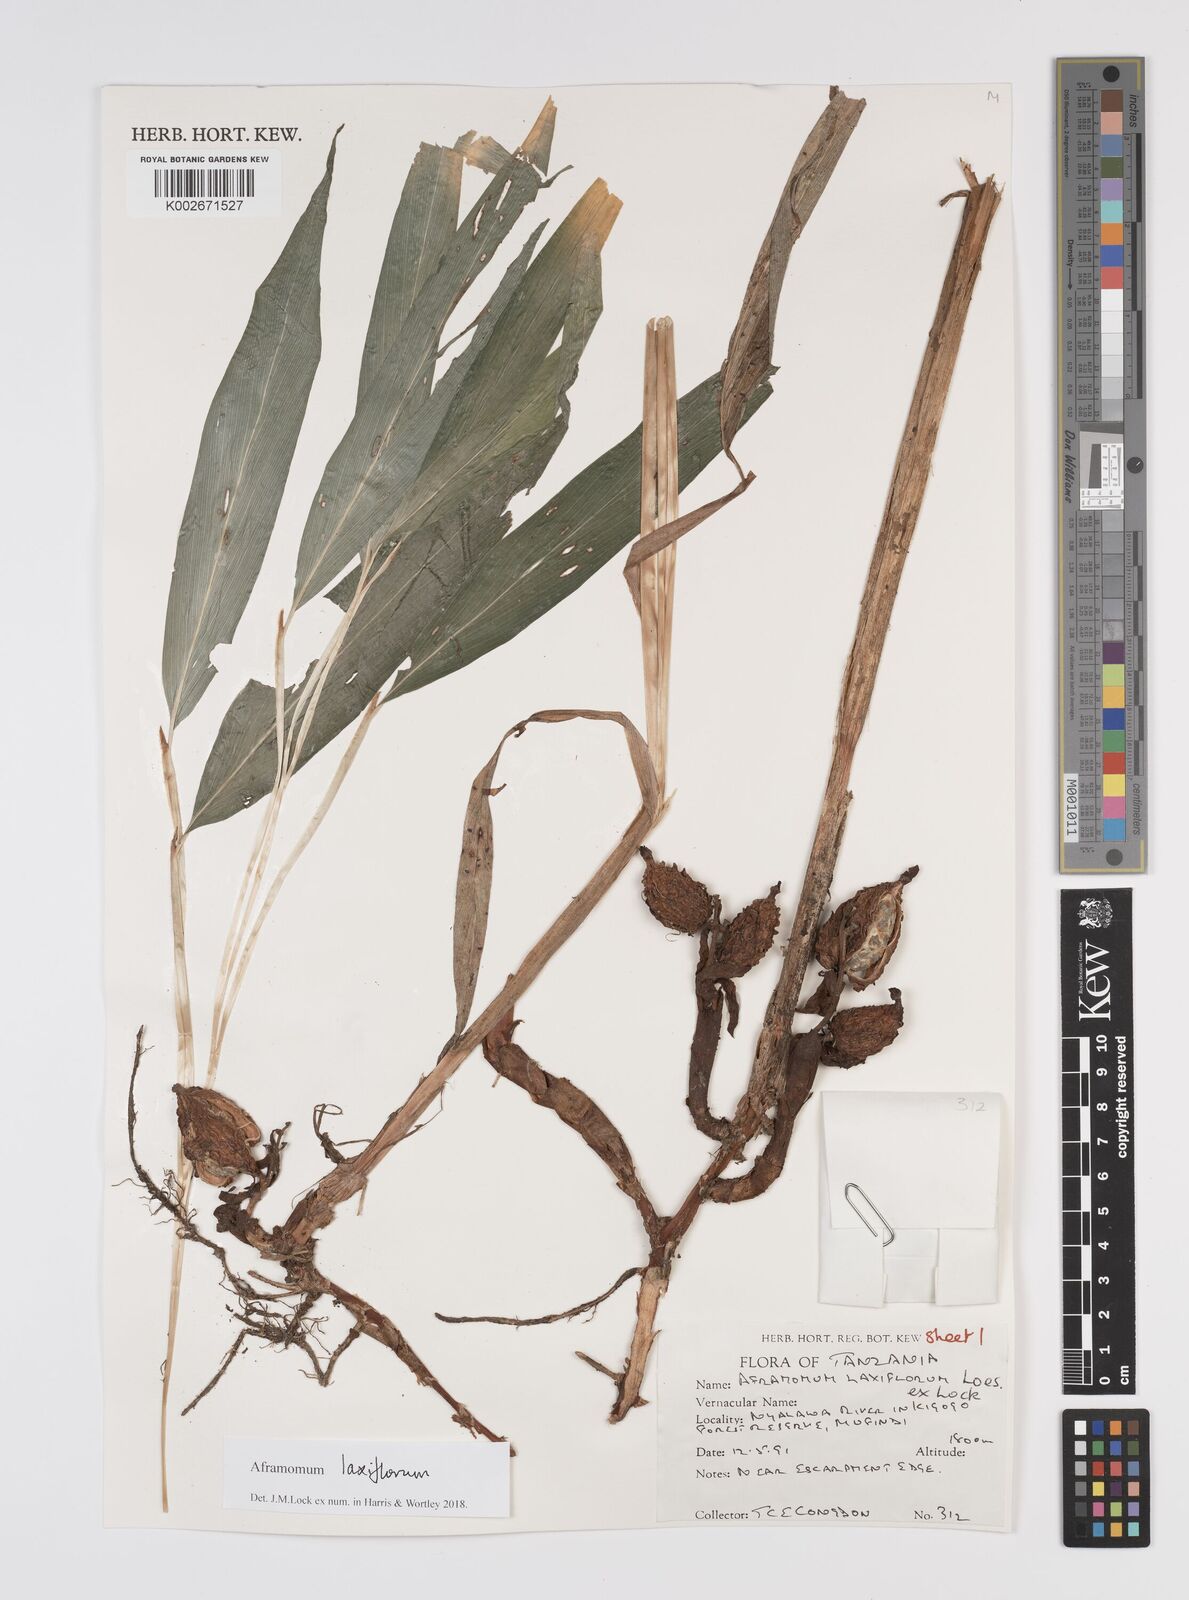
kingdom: Plantae
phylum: Tracheophyta
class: Liliopsida
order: Zingiberales
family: Zingiberaceae
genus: Aframomum
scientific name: Aframomum laxiflorum
